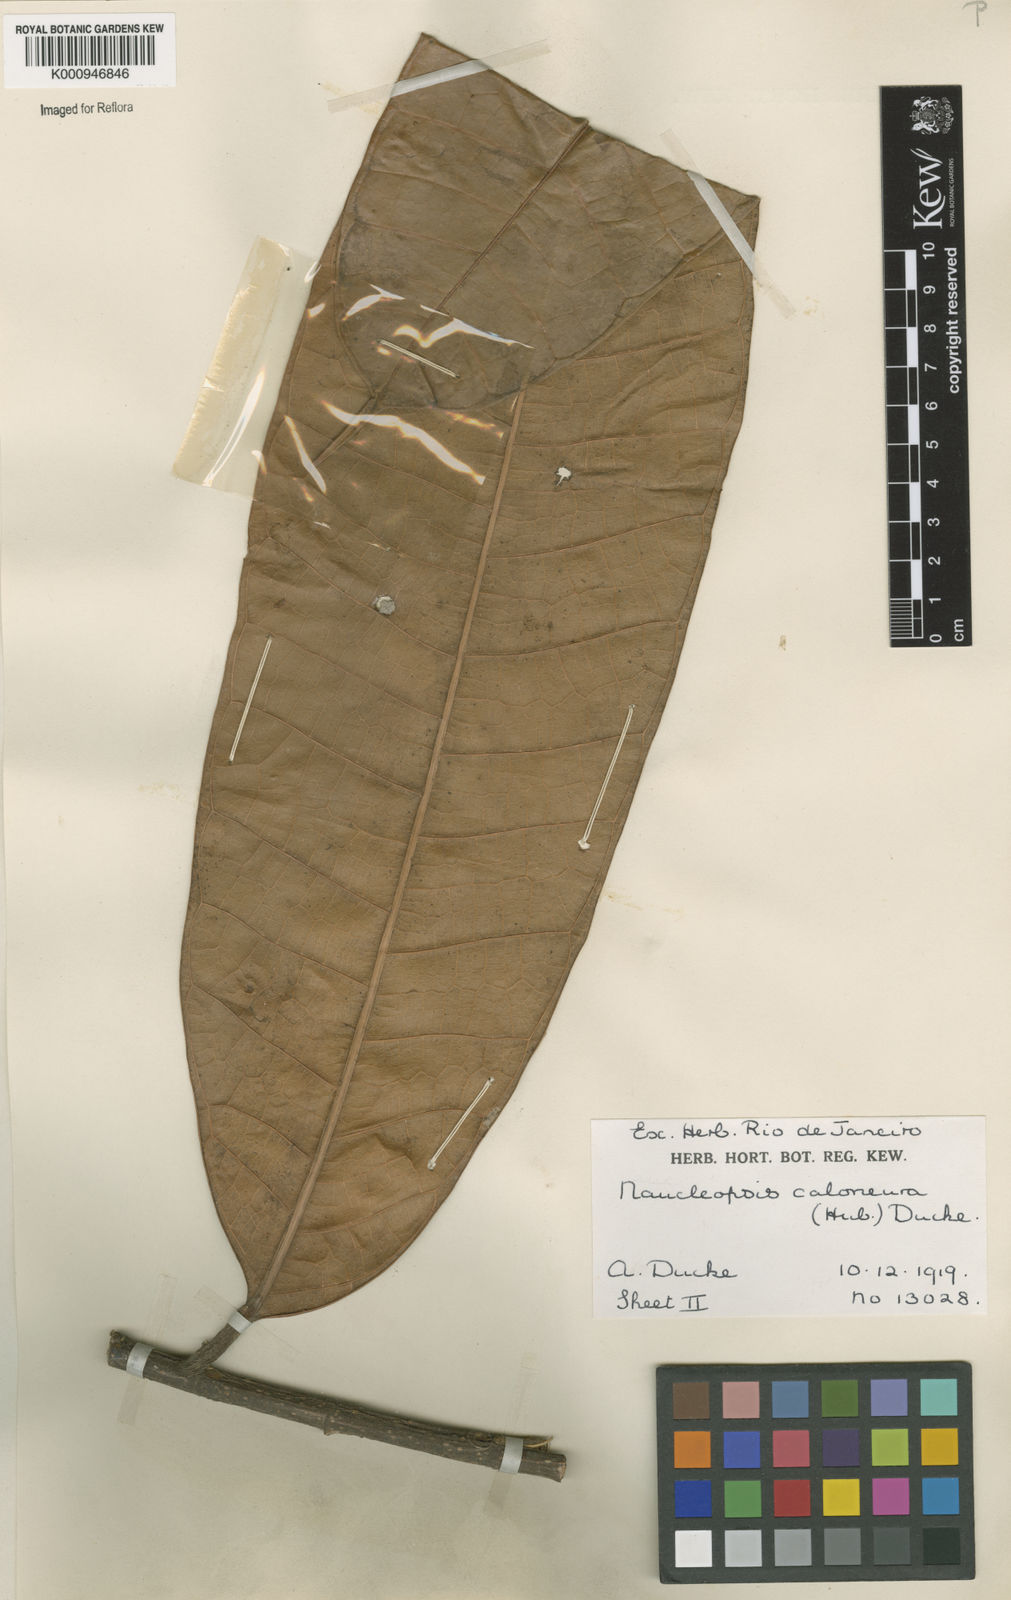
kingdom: Plantae
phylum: Tracheophyta
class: Magnoliopsida
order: Rosales
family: Moraceae
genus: Naucleopsis
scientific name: Naucleopsis caloneura
